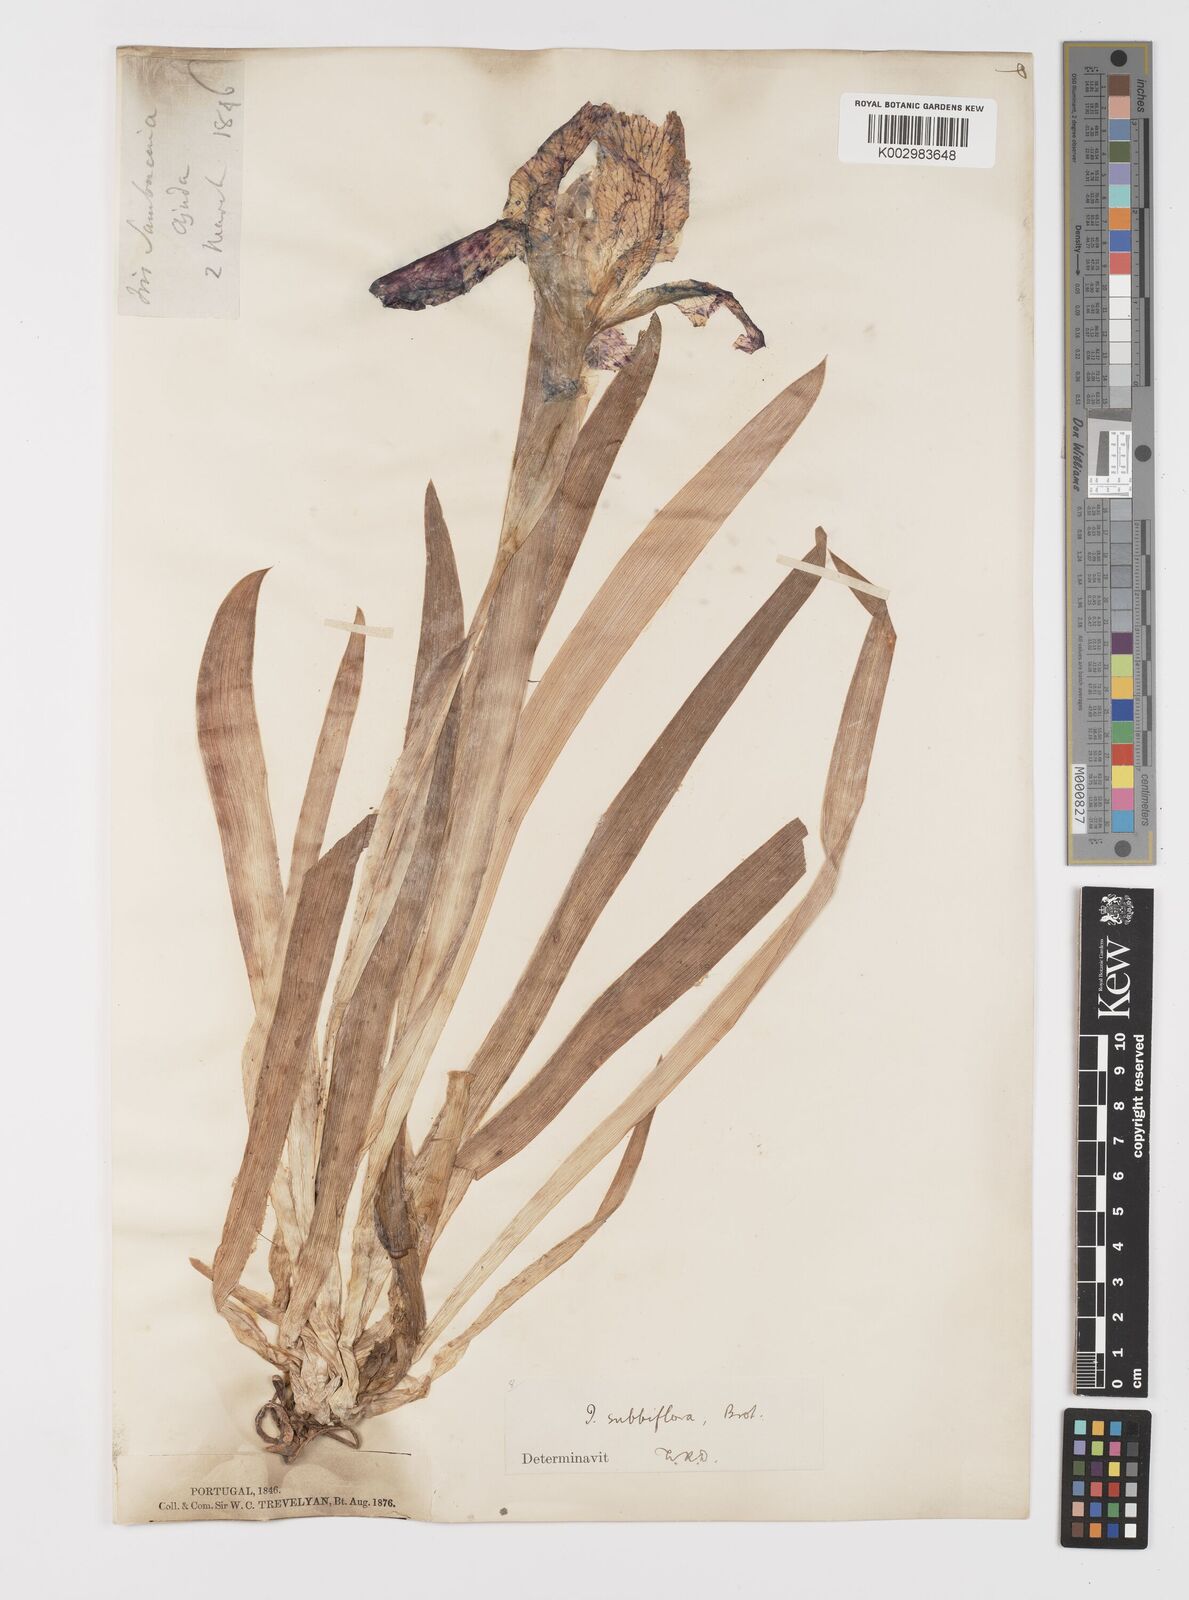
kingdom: Plantae
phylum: Tracheophyta
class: Liliopsida
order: Asparagales
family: Iridaceae
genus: Iris
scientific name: Iris lutescens
